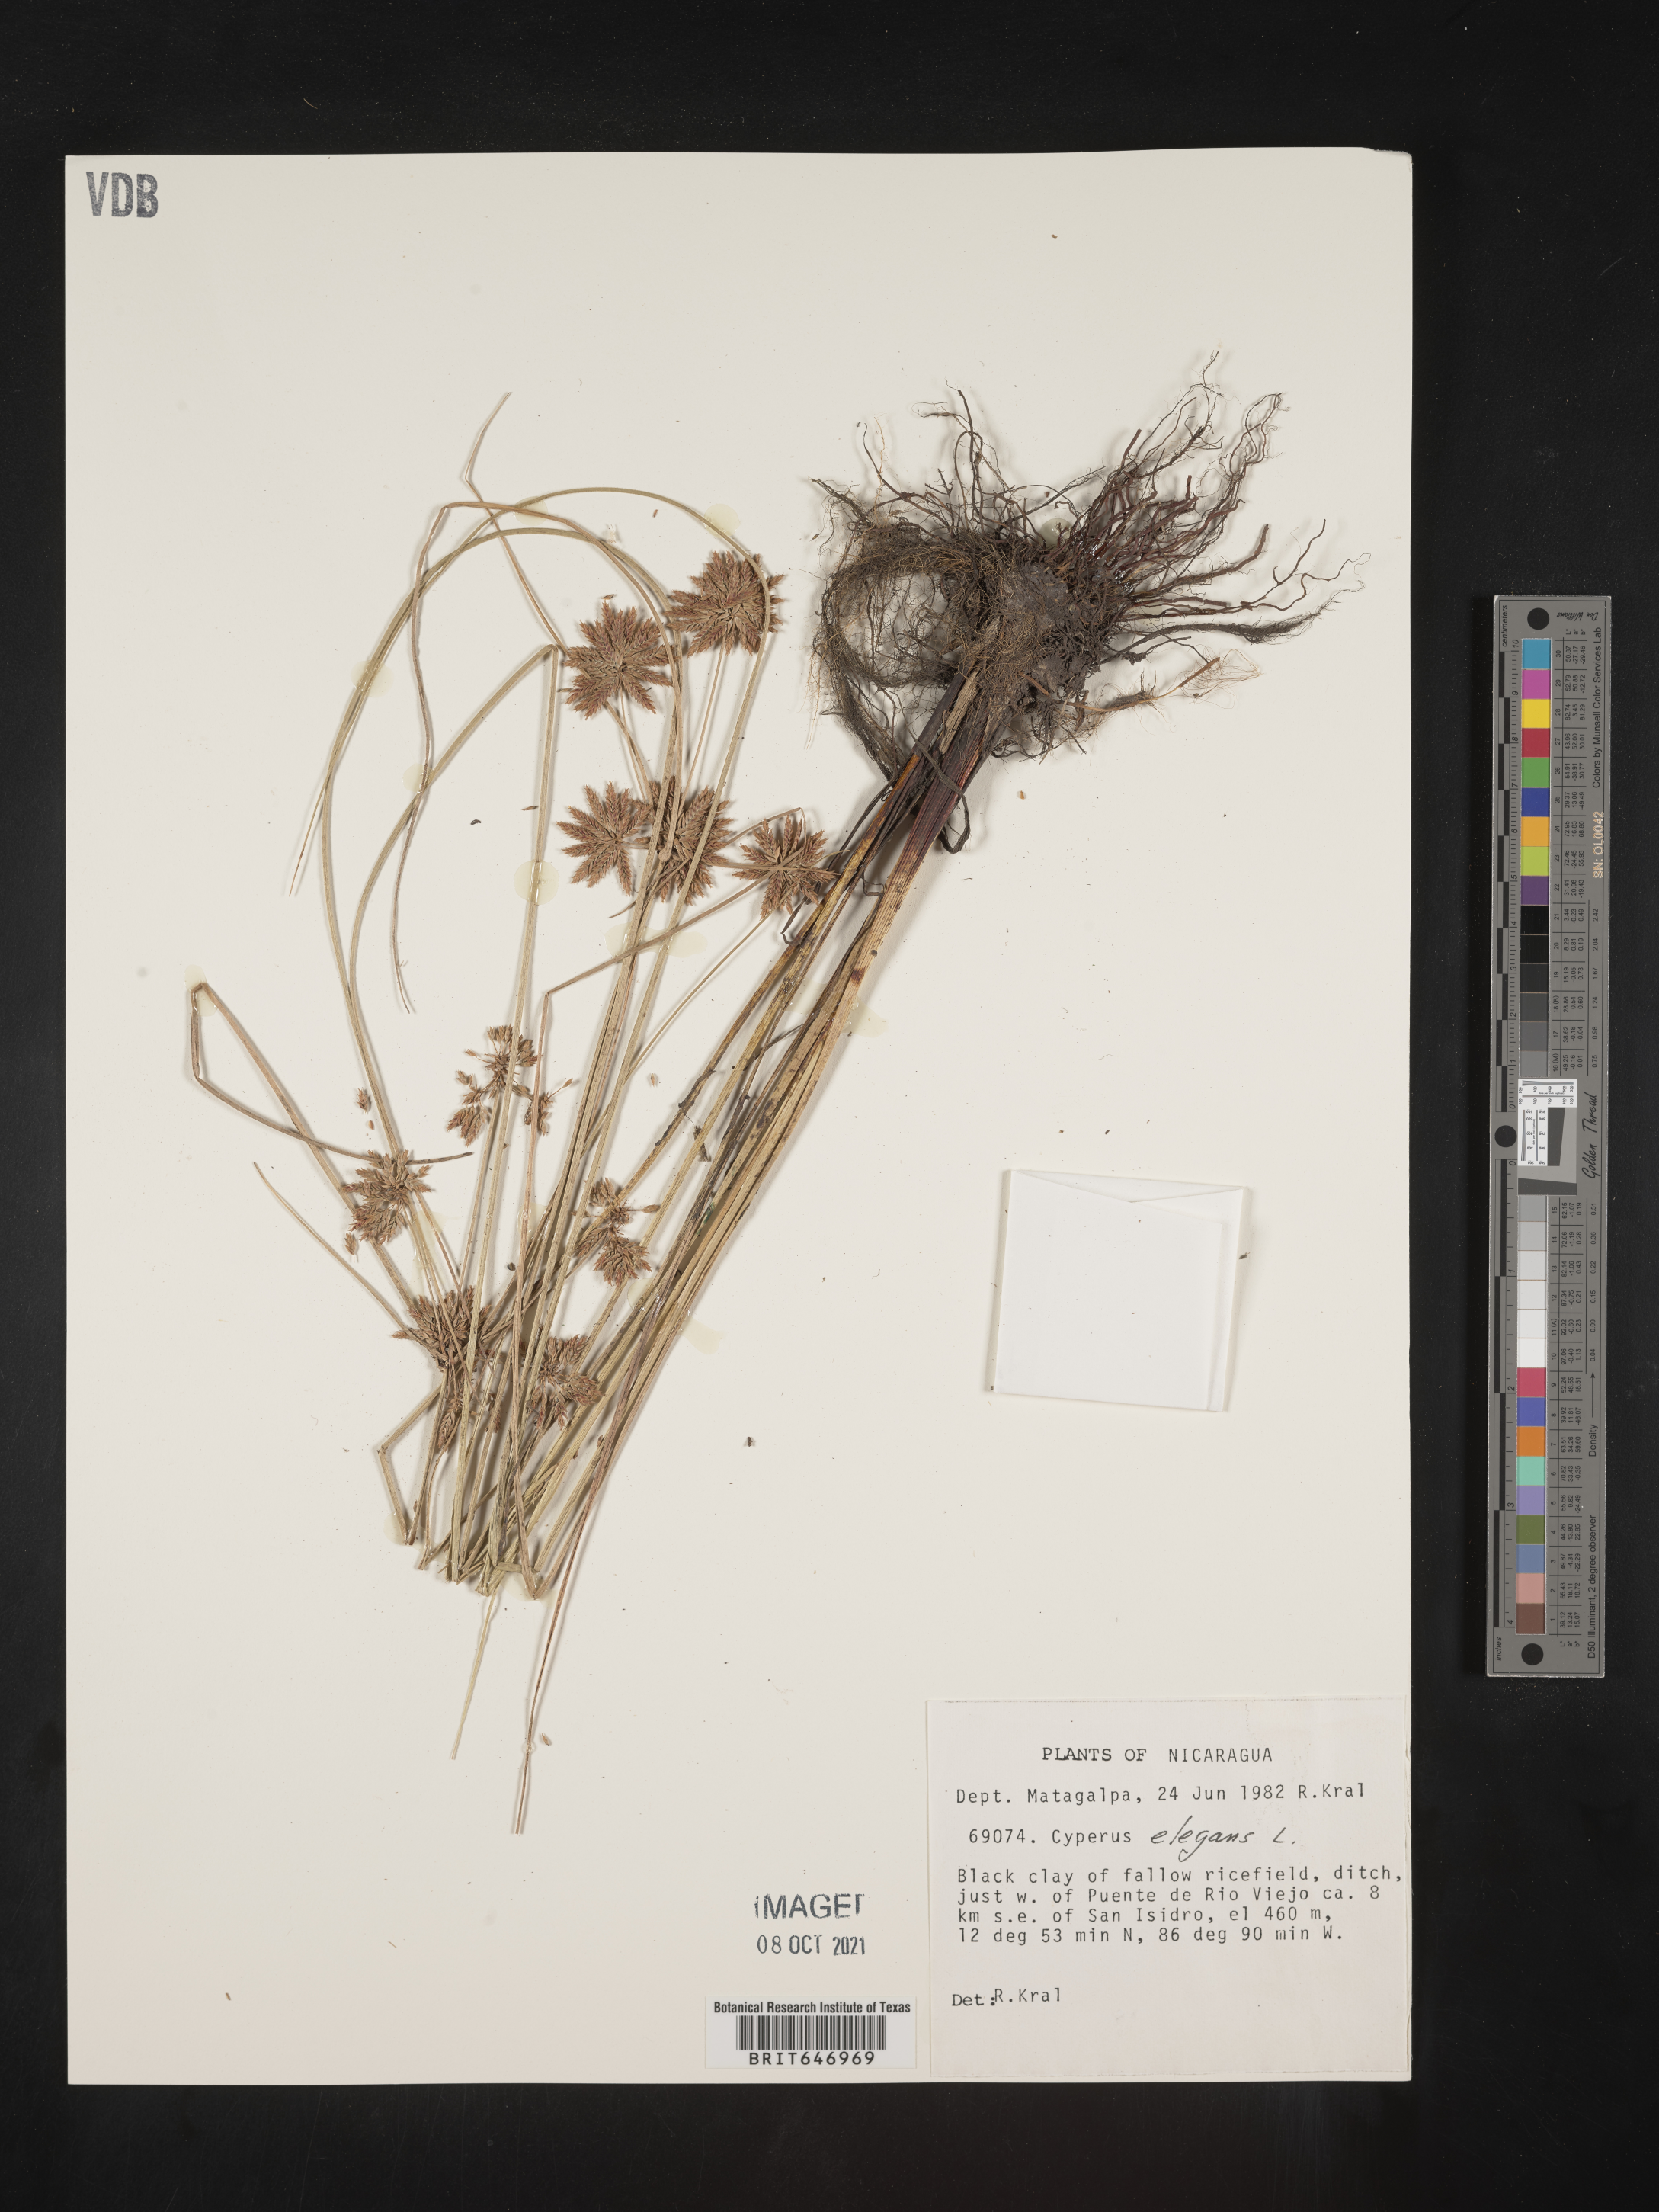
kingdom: Plantae
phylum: Tracheophyta
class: Liliopsida
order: Poales
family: Cyperaceae
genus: Cyperus
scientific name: Cyperus elegans
